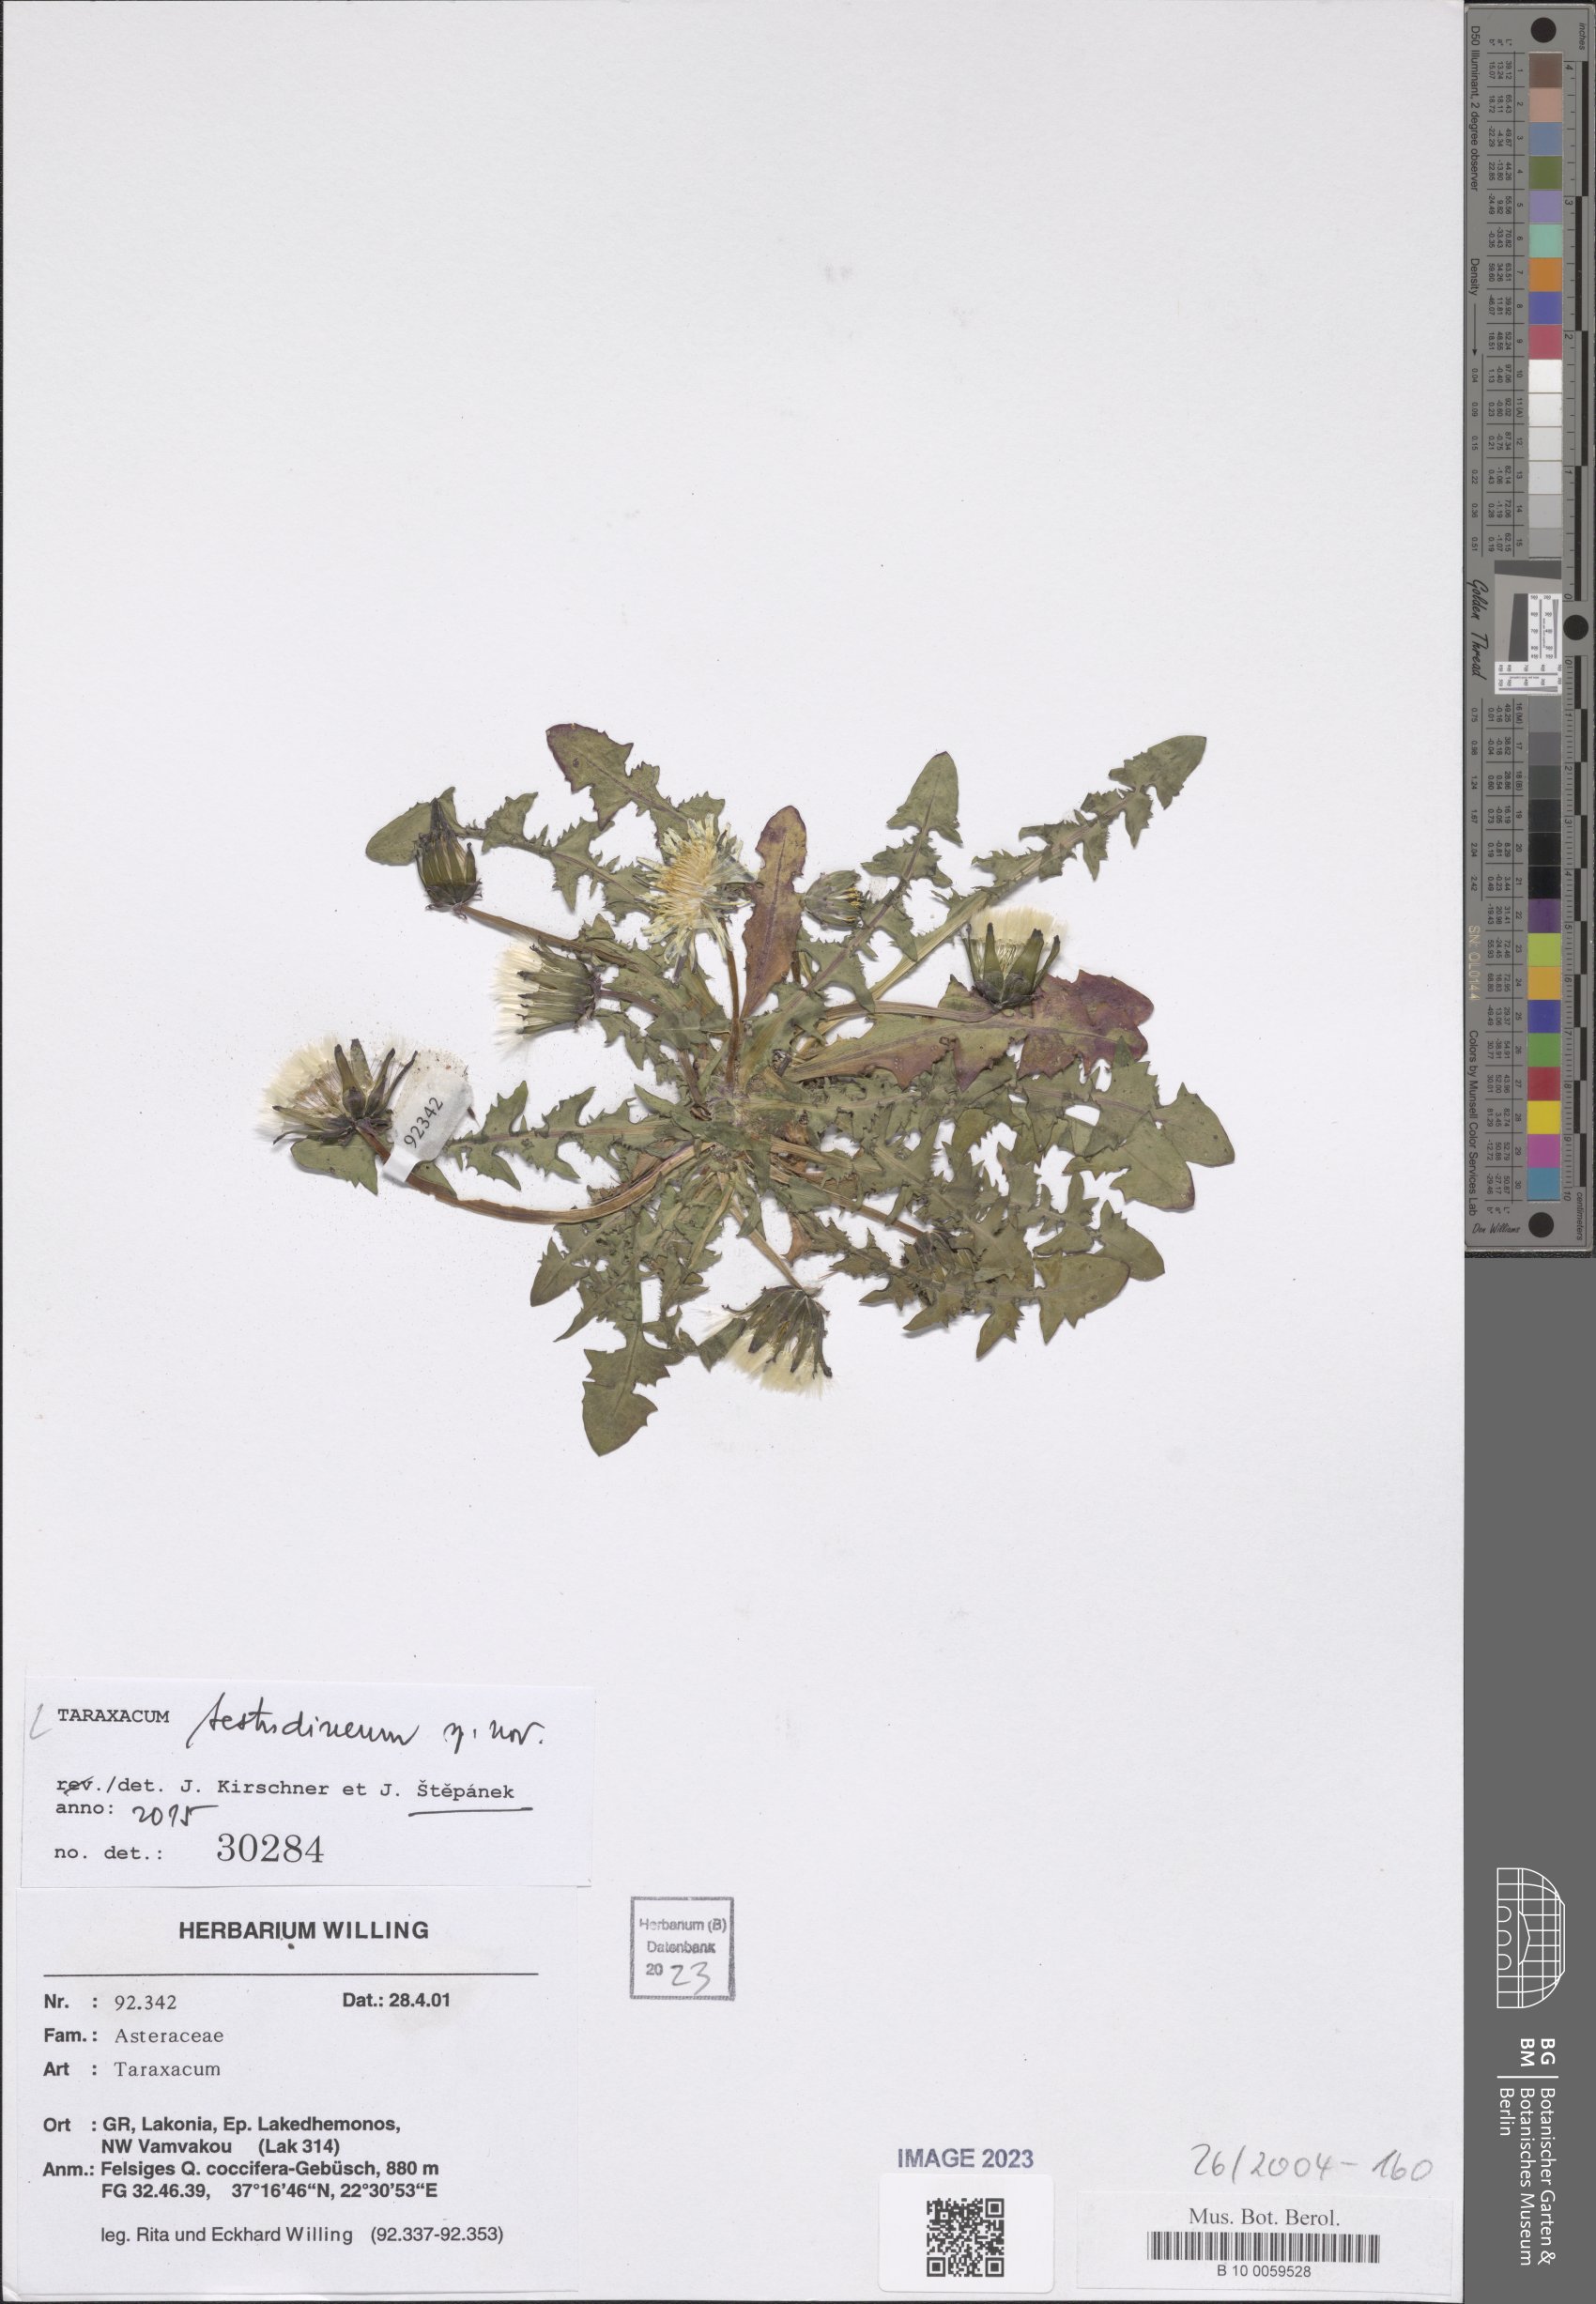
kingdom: Plantae
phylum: Tracheophyta
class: Magnoliopsida
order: Asterales
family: Asteraceae
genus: Taraxacum
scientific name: Taraxacum
